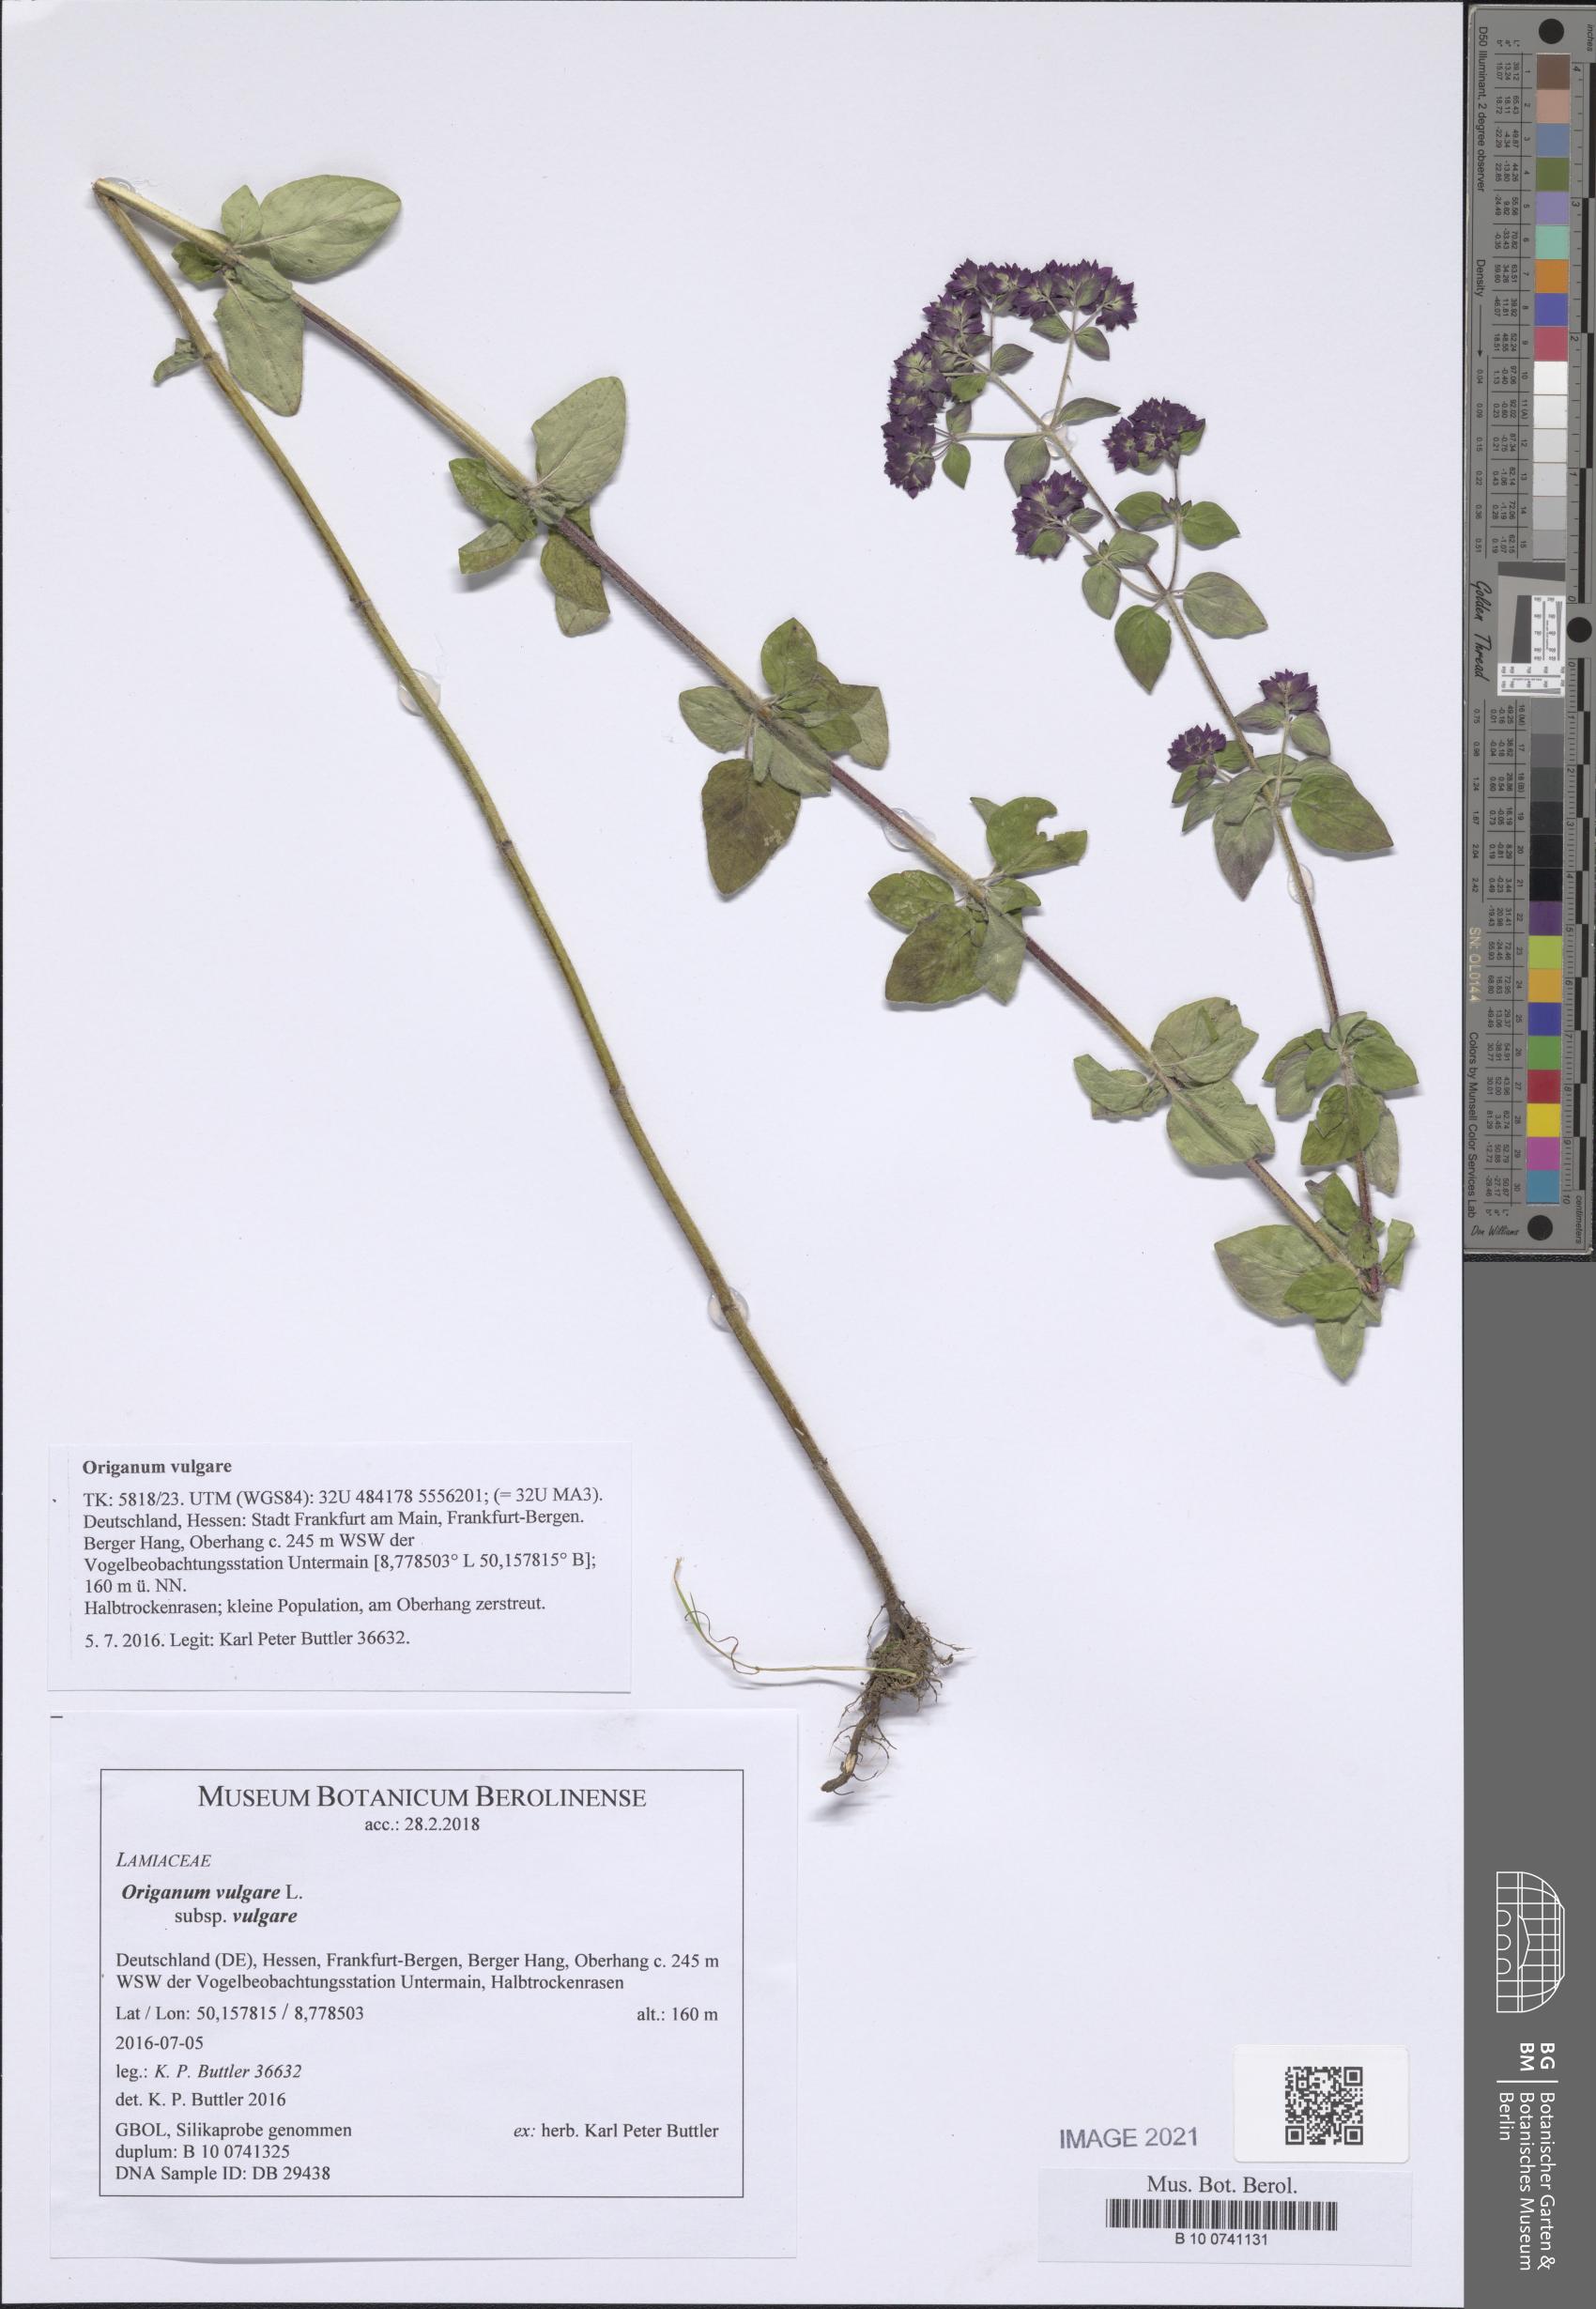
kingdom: Plantae
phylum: Tracheophyta
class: Magnoliopsida
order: Lamiales
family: Lamiaceae
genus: Origanum
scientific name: Origanum vulgare
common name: Wild marjoram
